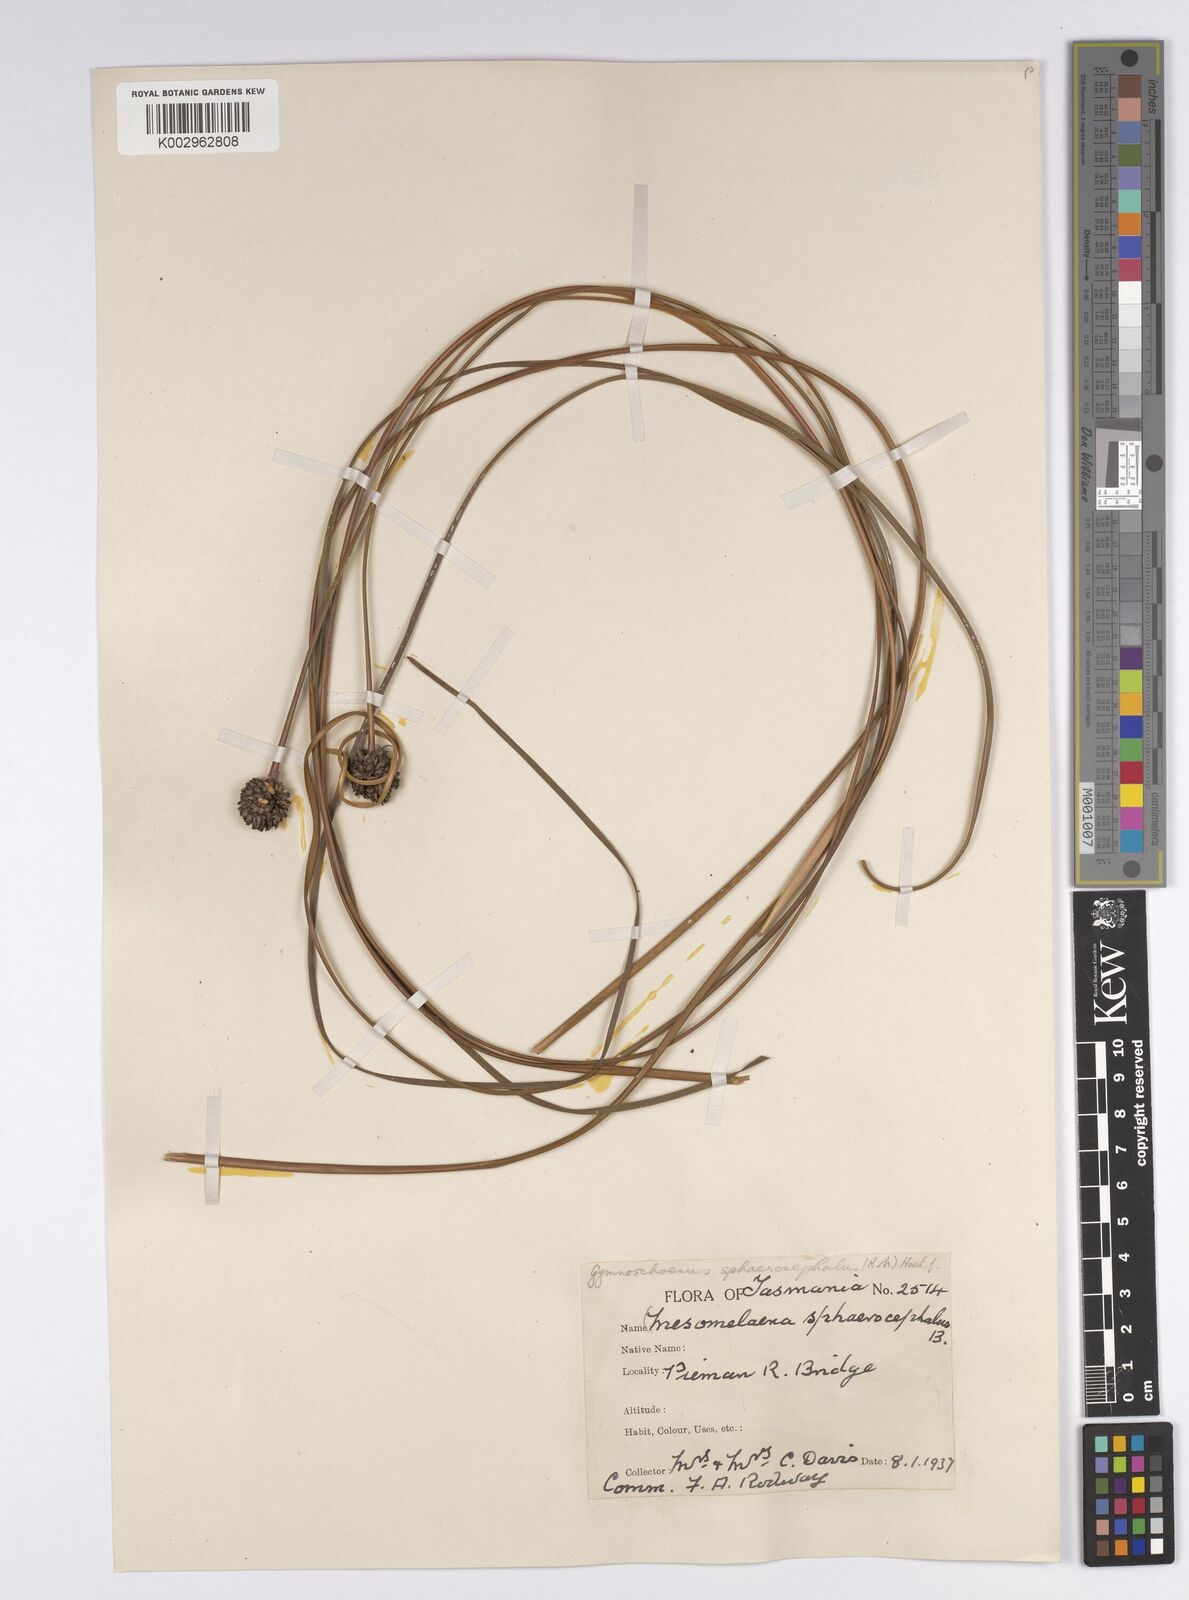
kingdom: Plantae
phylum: Tracheophyta
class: Liliopsida
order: Poales
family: Cyperaceae
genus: Gymnoschoenus
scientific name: Gymnoschoenus sphaerocephalus
